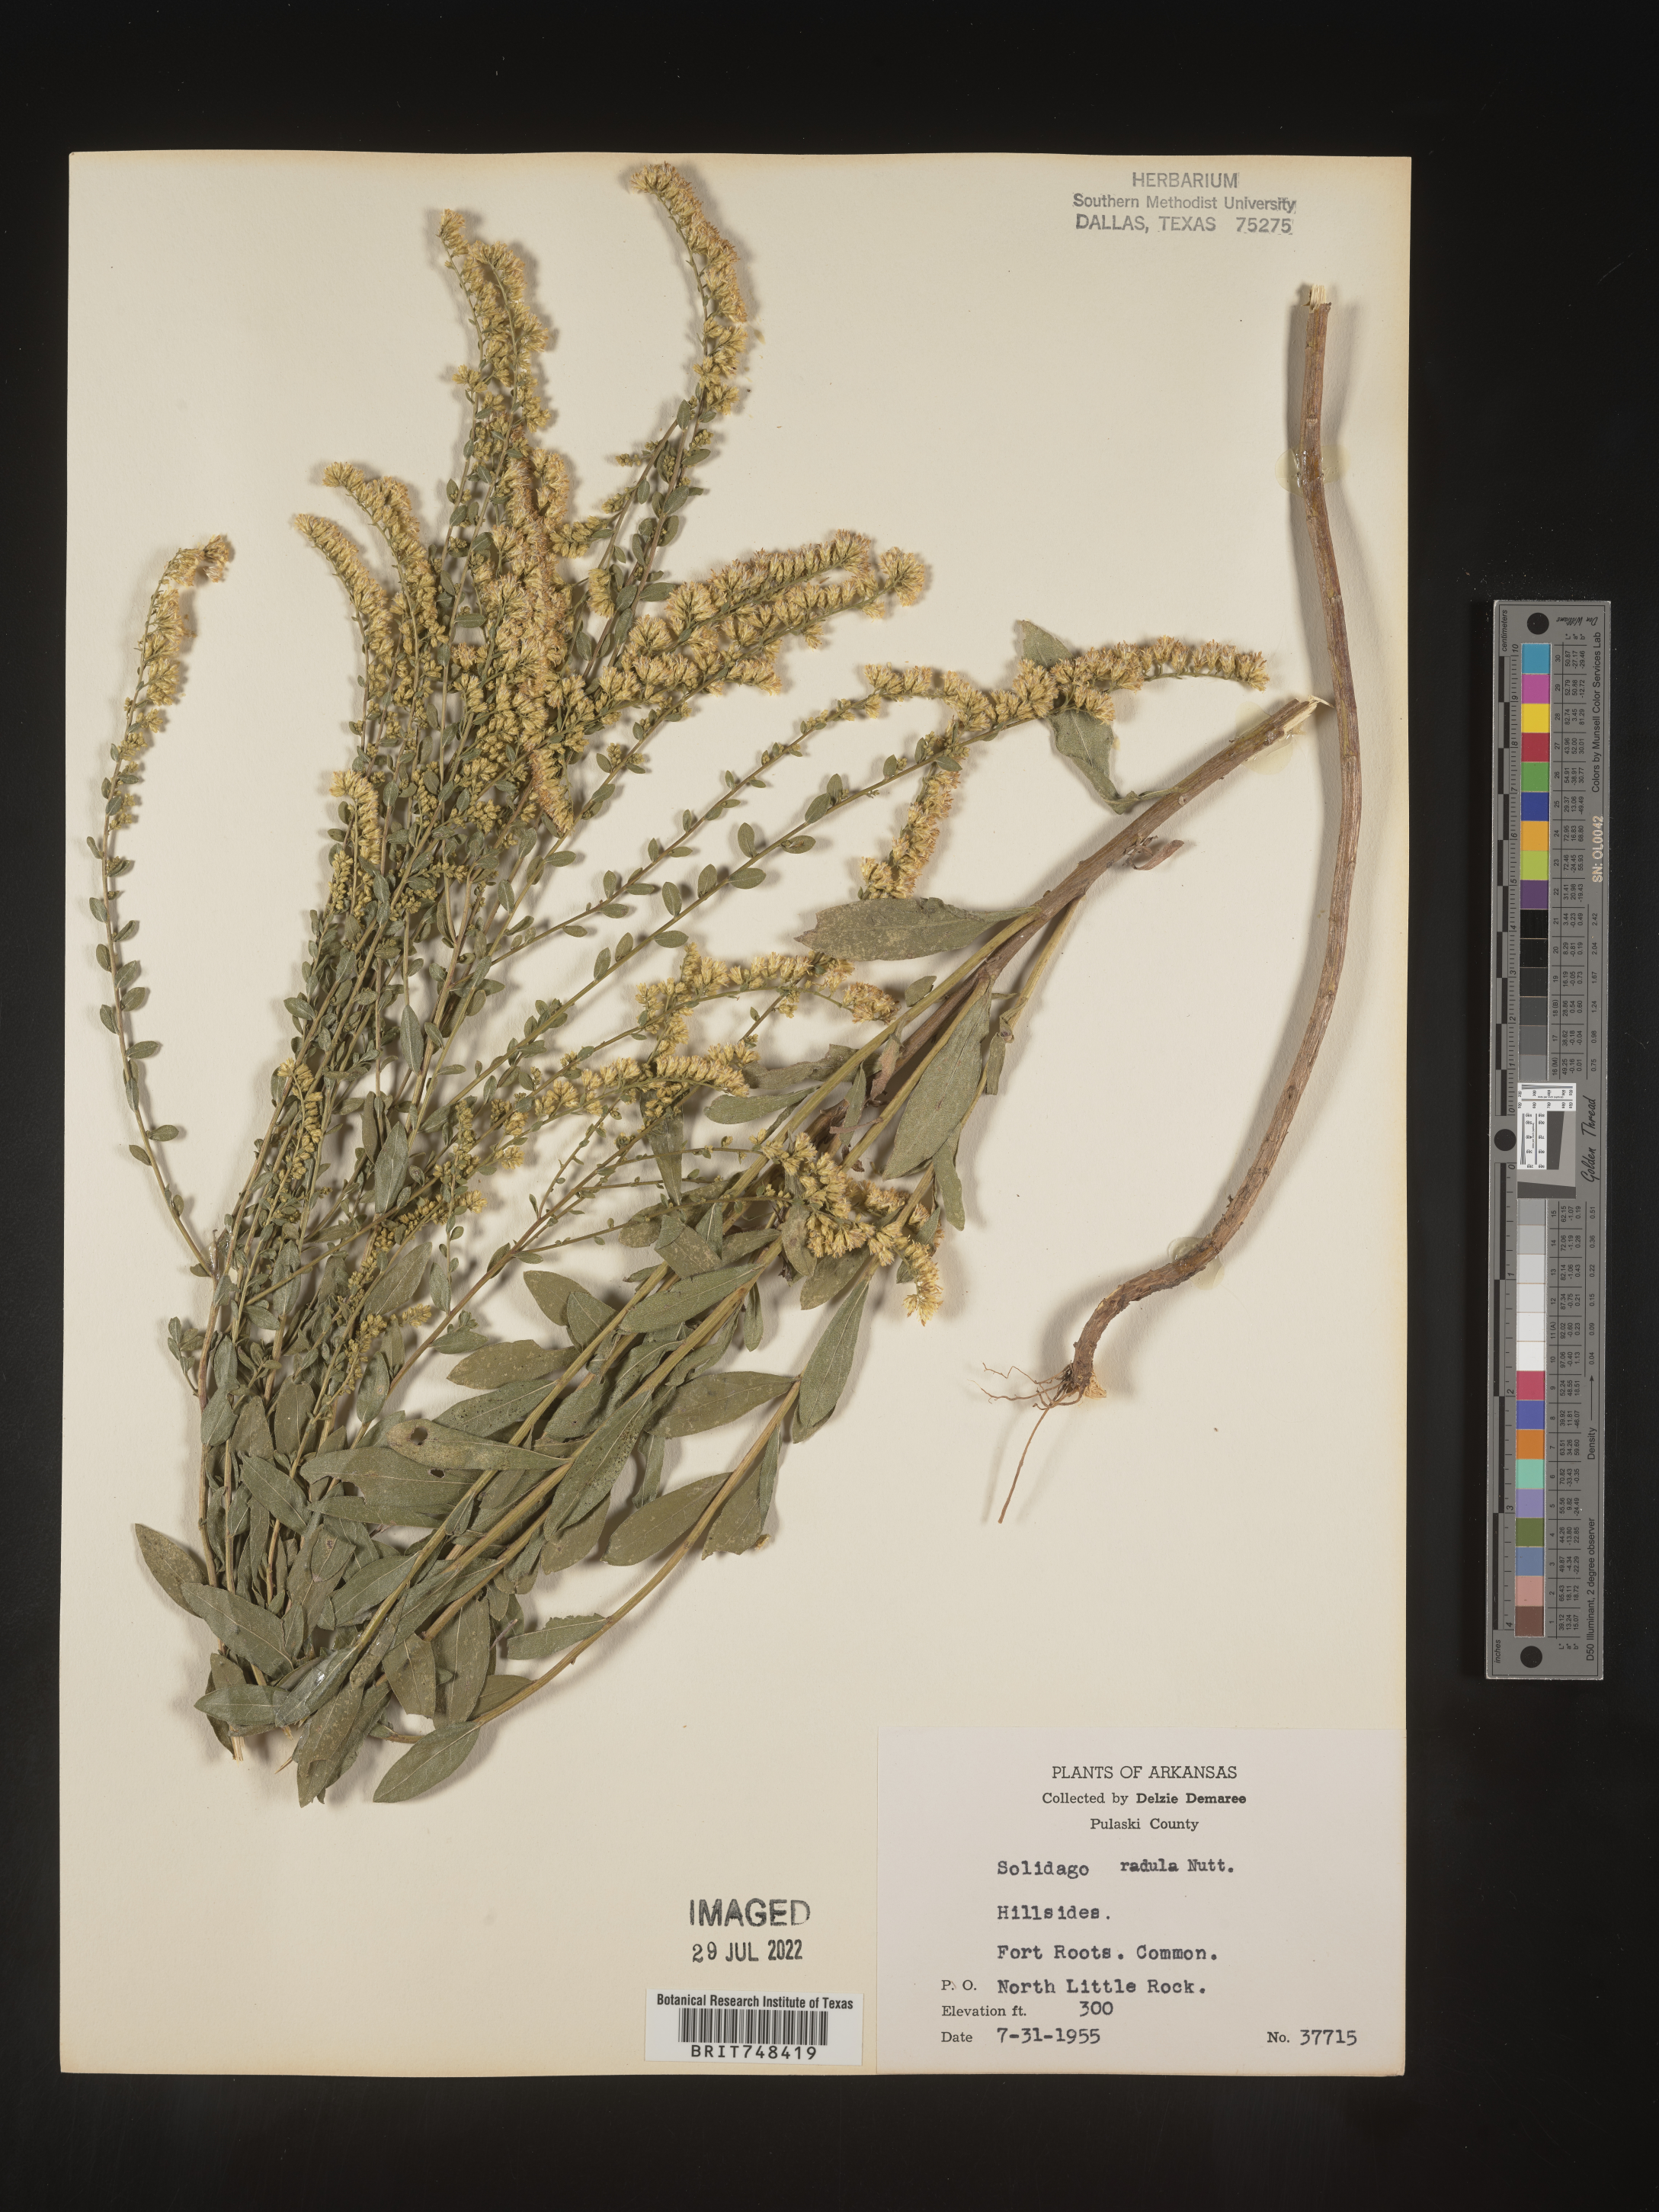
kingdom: Plantae
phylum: Tracheophyta
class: Magnoliopsida
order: Asterales
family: Asteraceae
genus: Solidago
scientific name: Solidago radula
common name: Western rough goldenrod
